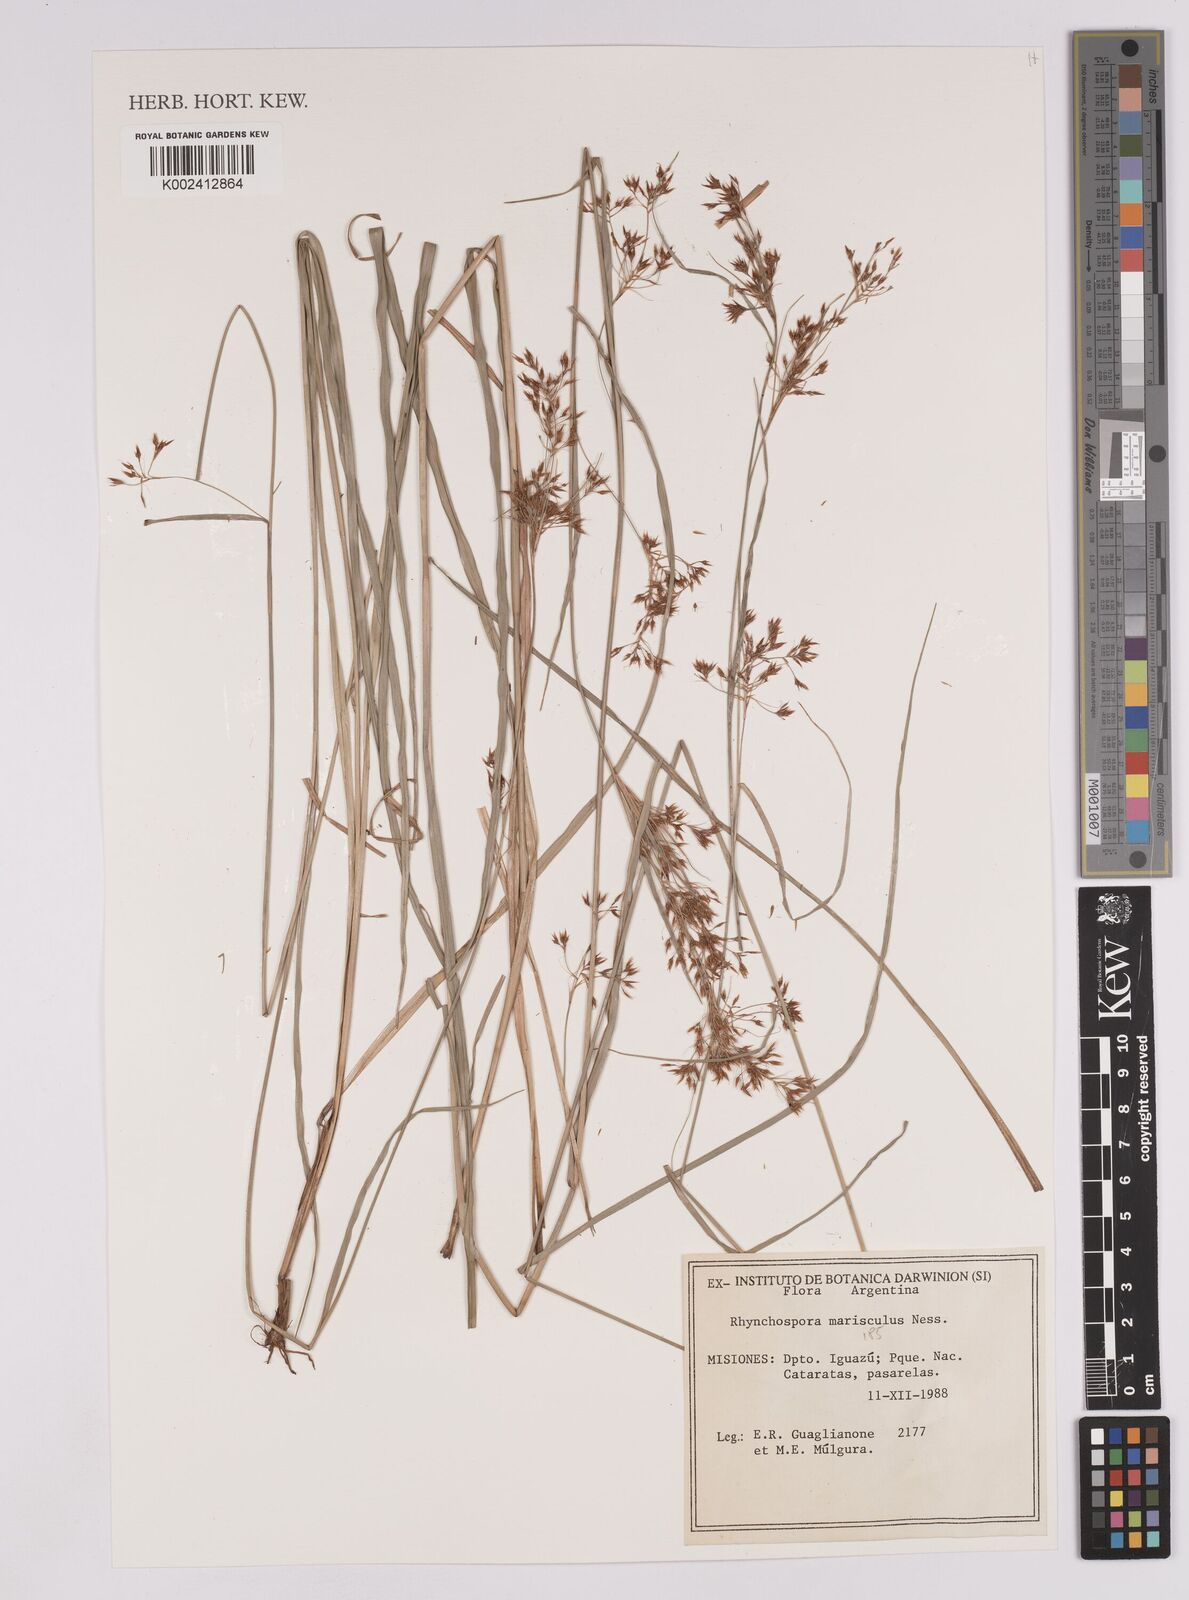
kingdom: Plantae
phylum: Tracheophyta
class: Liliopsida
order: Poales
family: Cyperaceae
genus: Rhynchospora
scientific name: Rhynchospora marisculus
